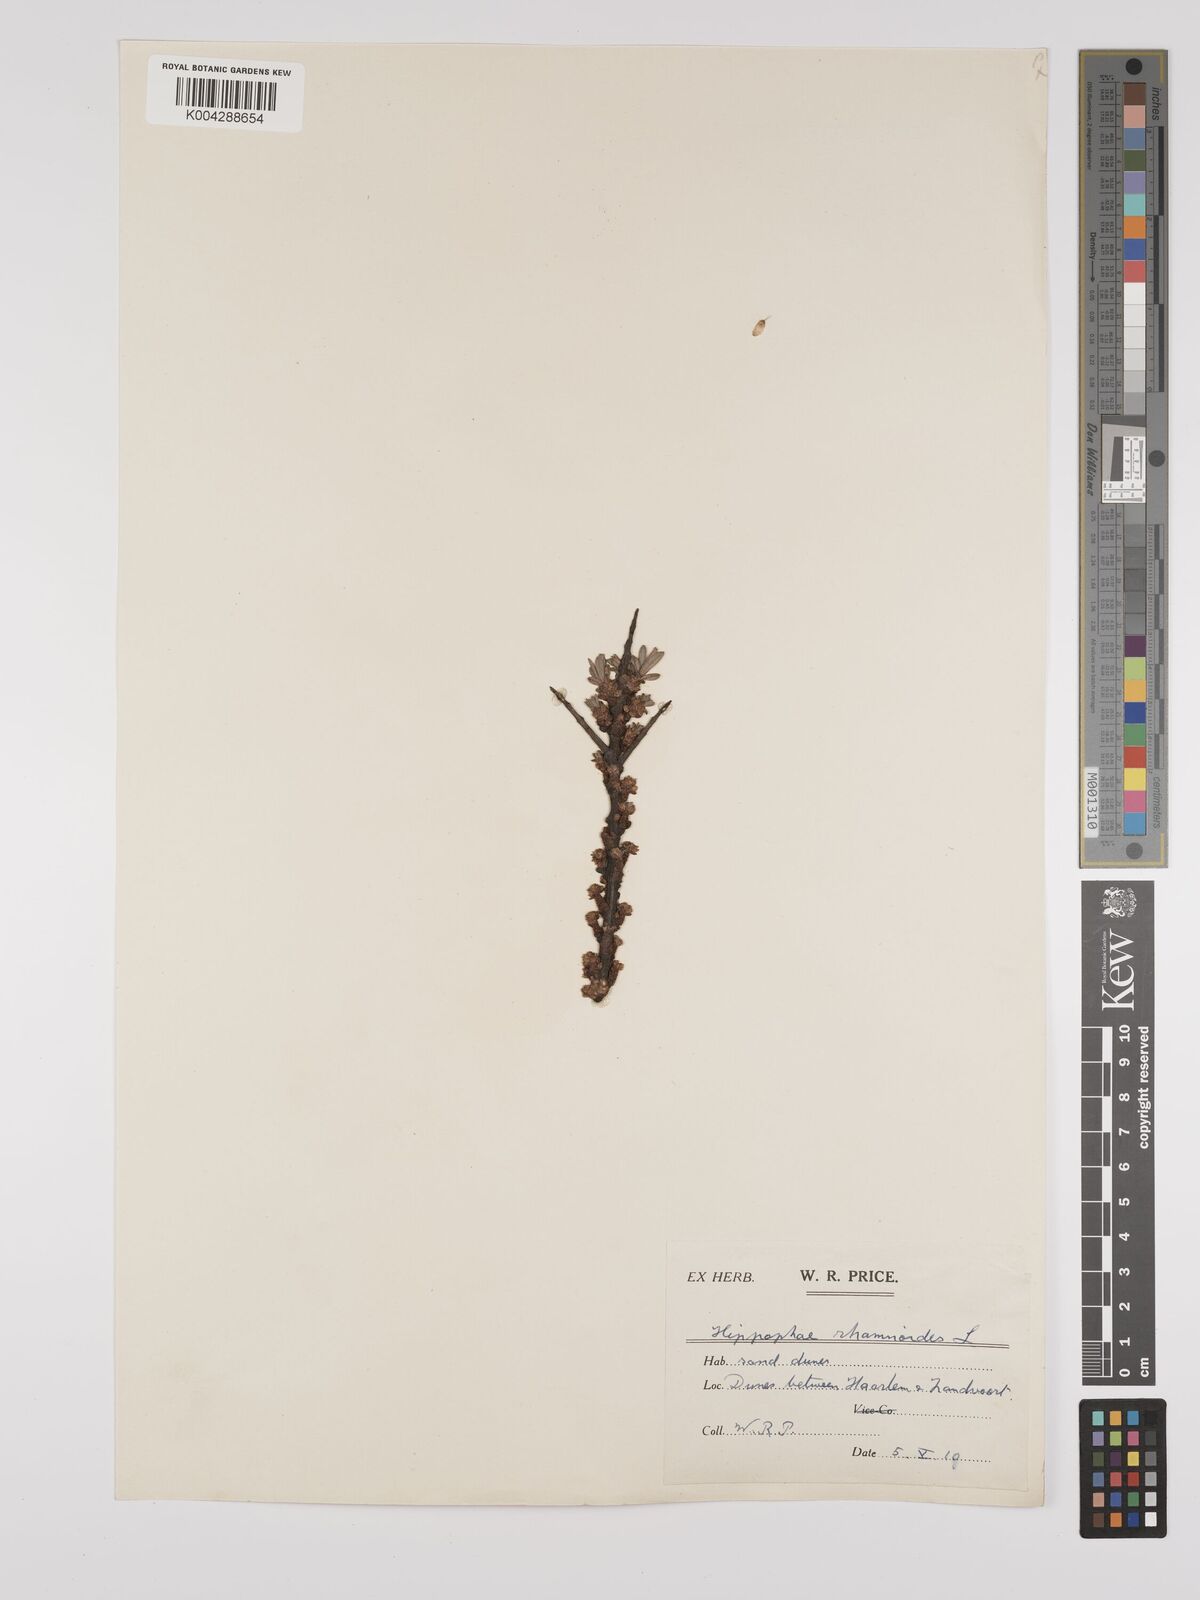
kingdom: Plantae
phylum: Tracheophyta
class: Magnoliopsida
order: Rosales
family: Elaeagnaceae
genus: Hippophae
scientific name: Hippophae rhamnoides
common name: Sea-buckthorn
